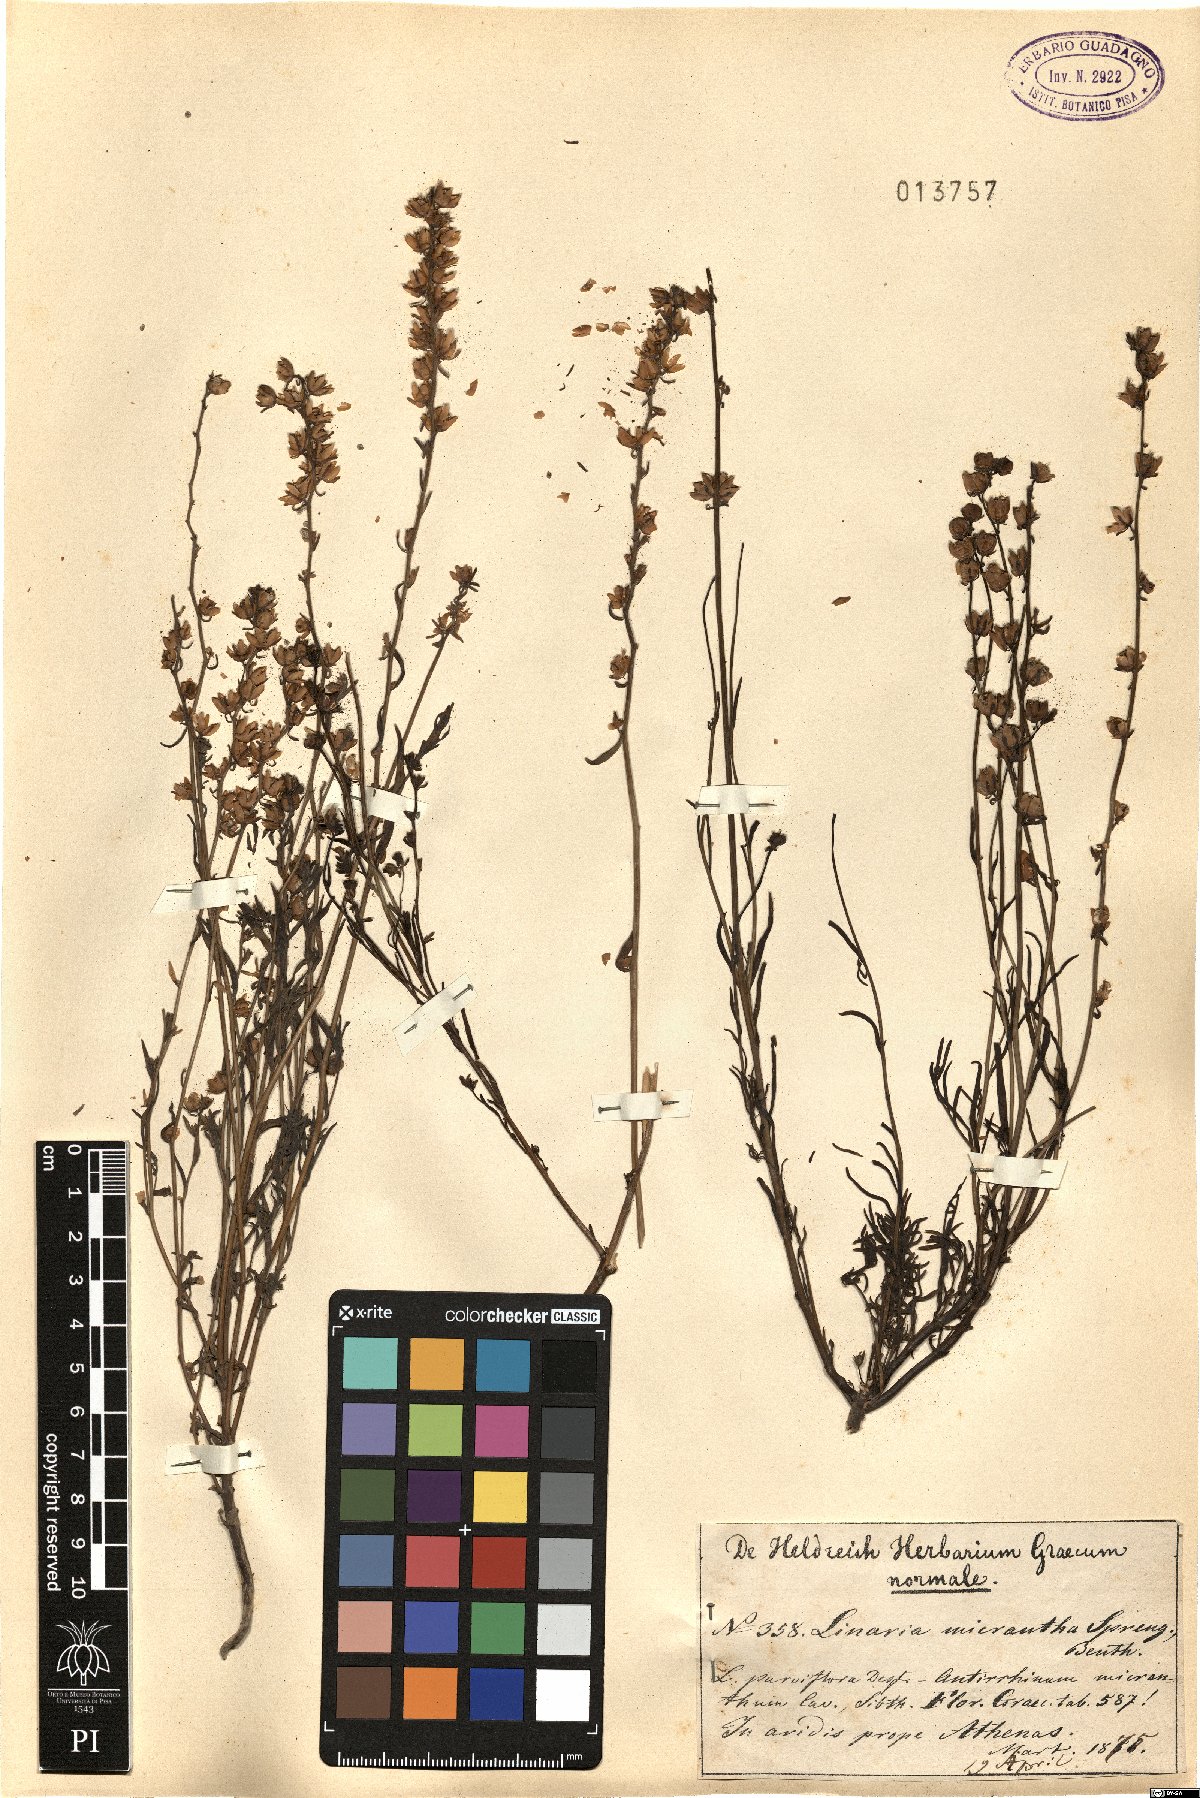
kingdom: Plantae
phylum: Tracheophyta
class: Magnoliopsida
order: Lamiales
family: Plantaginaceae
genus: Linaria
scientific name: Linaria micrantha
